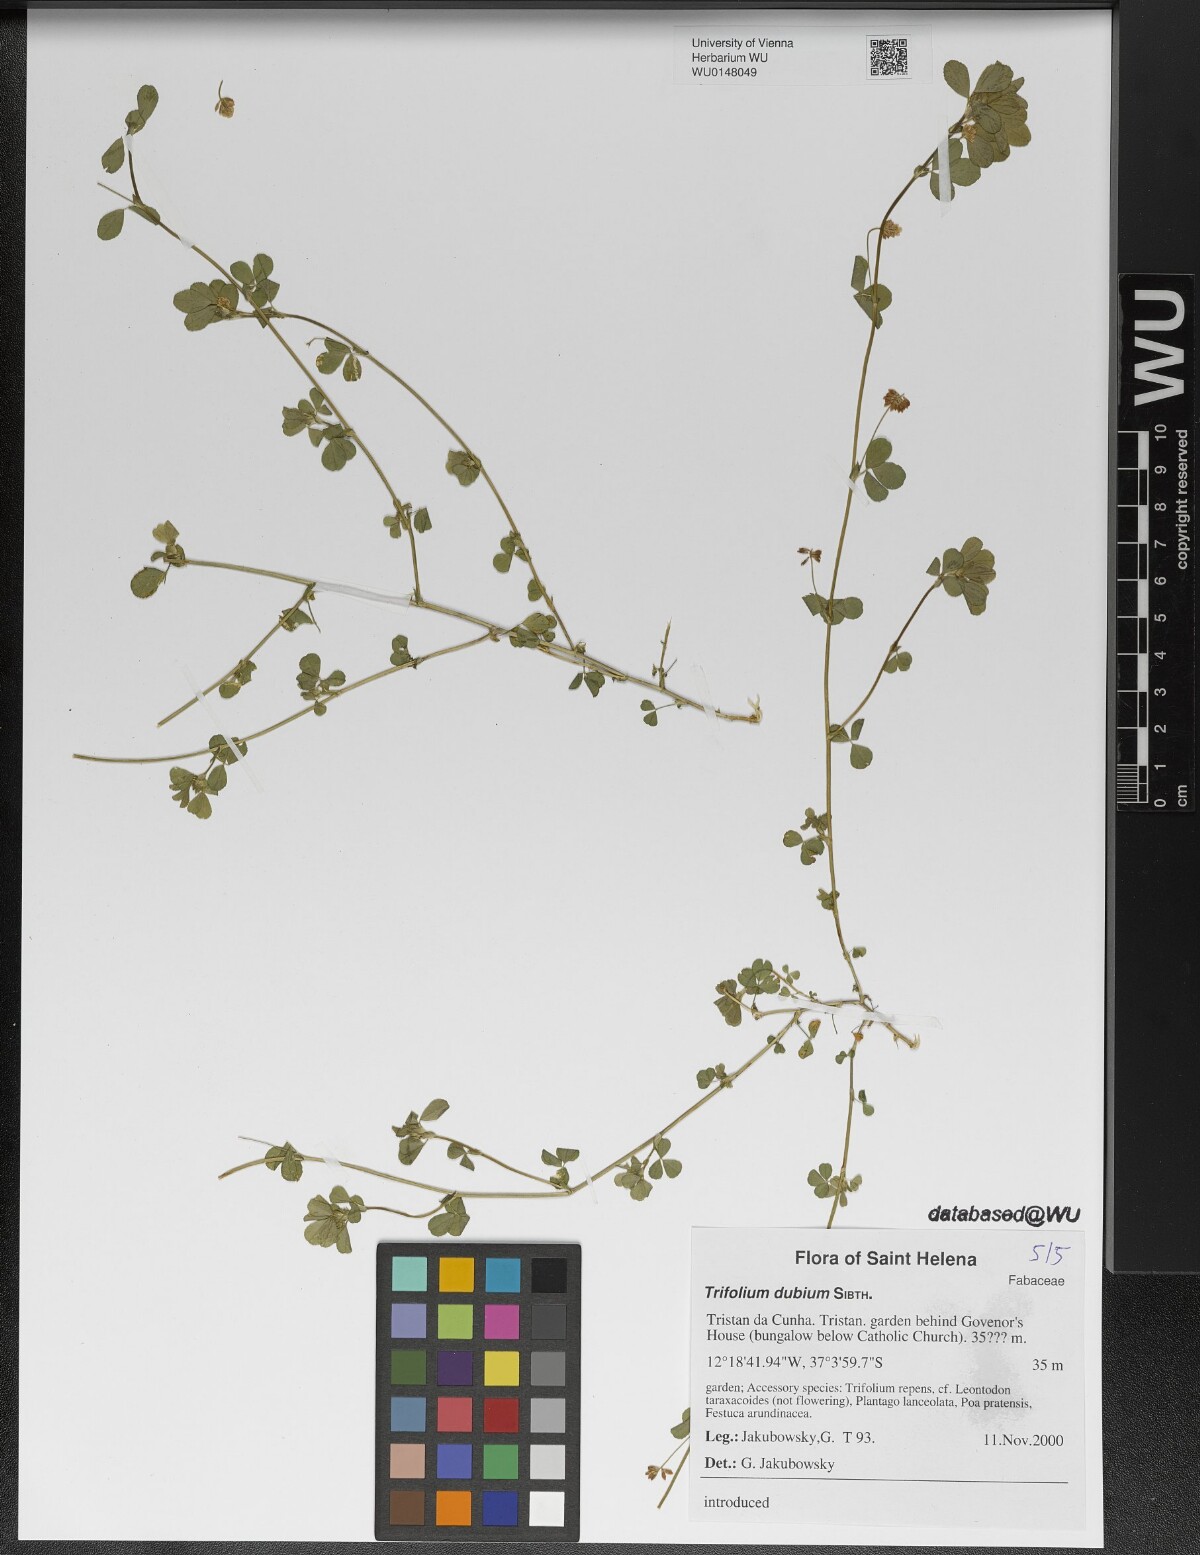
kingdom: Plantae
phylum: Tracheophyta
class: Magnoliopsida
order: Fabales
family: Fabaceae
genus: Trifolium
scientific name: Trifolium dubium
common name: Suckling clover
